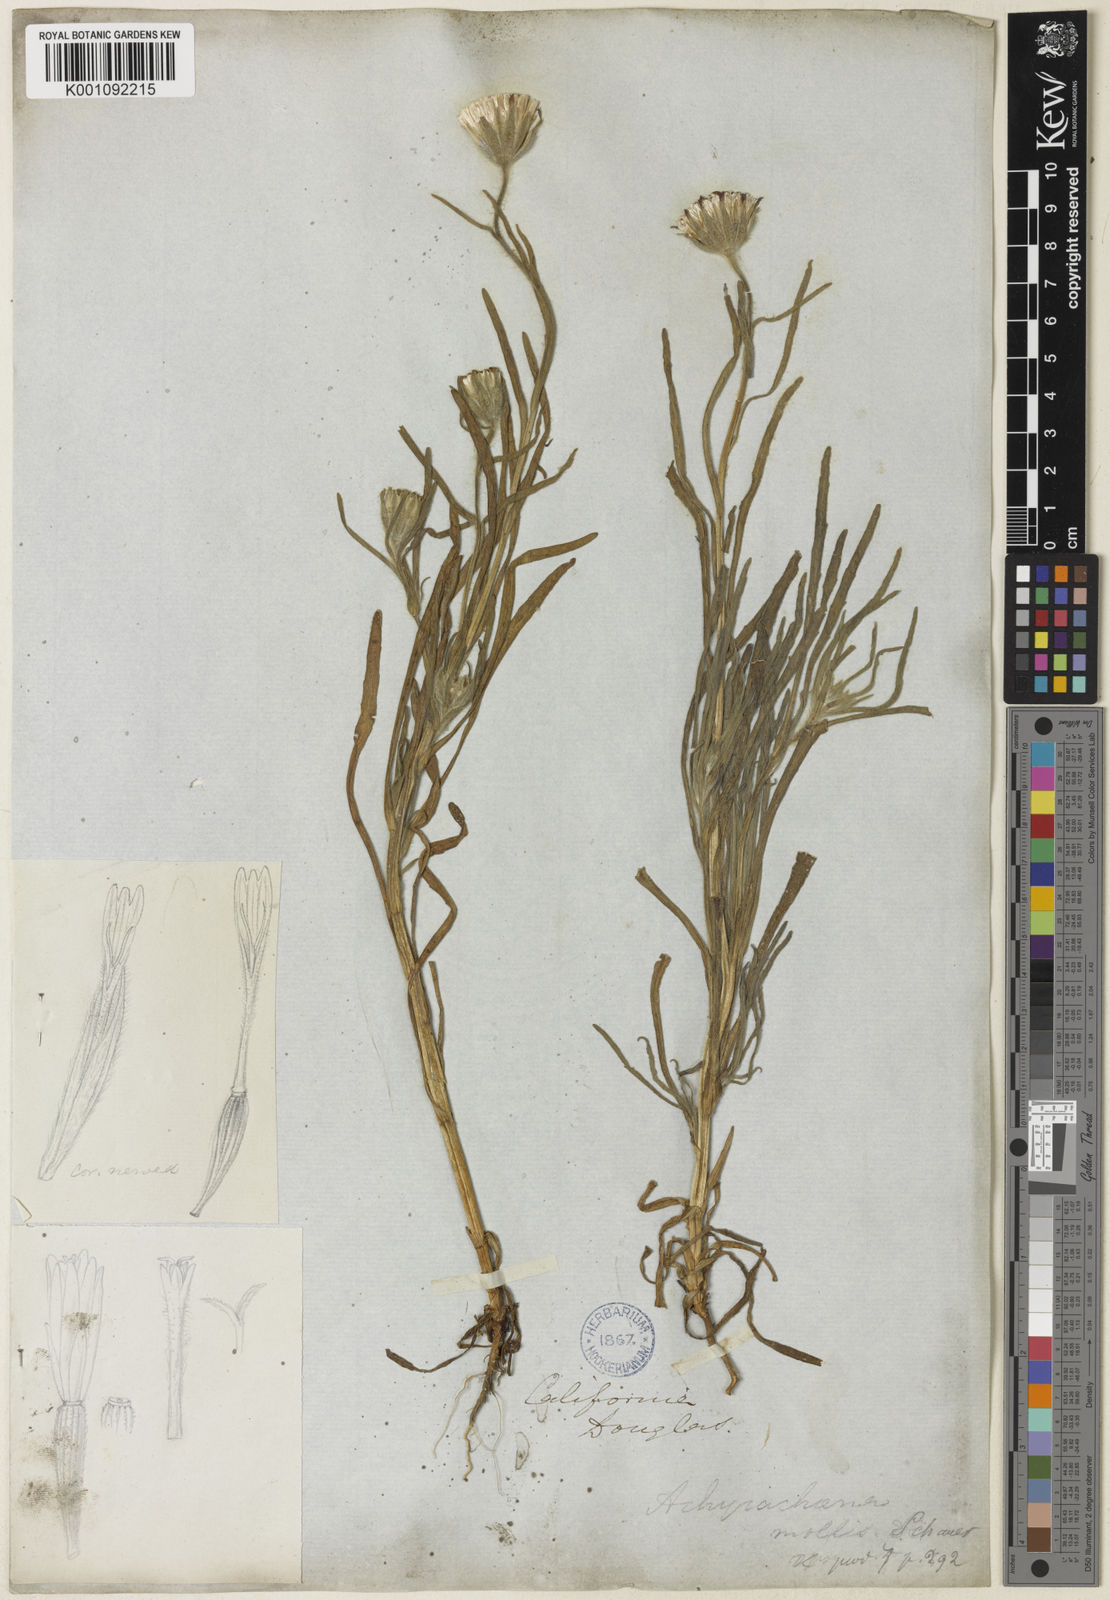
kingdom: Plantae
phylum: Tracheophyta
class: Magnoliopsida
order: Asterales
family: Asteraceae
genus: Achyrachaena
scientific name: Achyrachaena mollis
